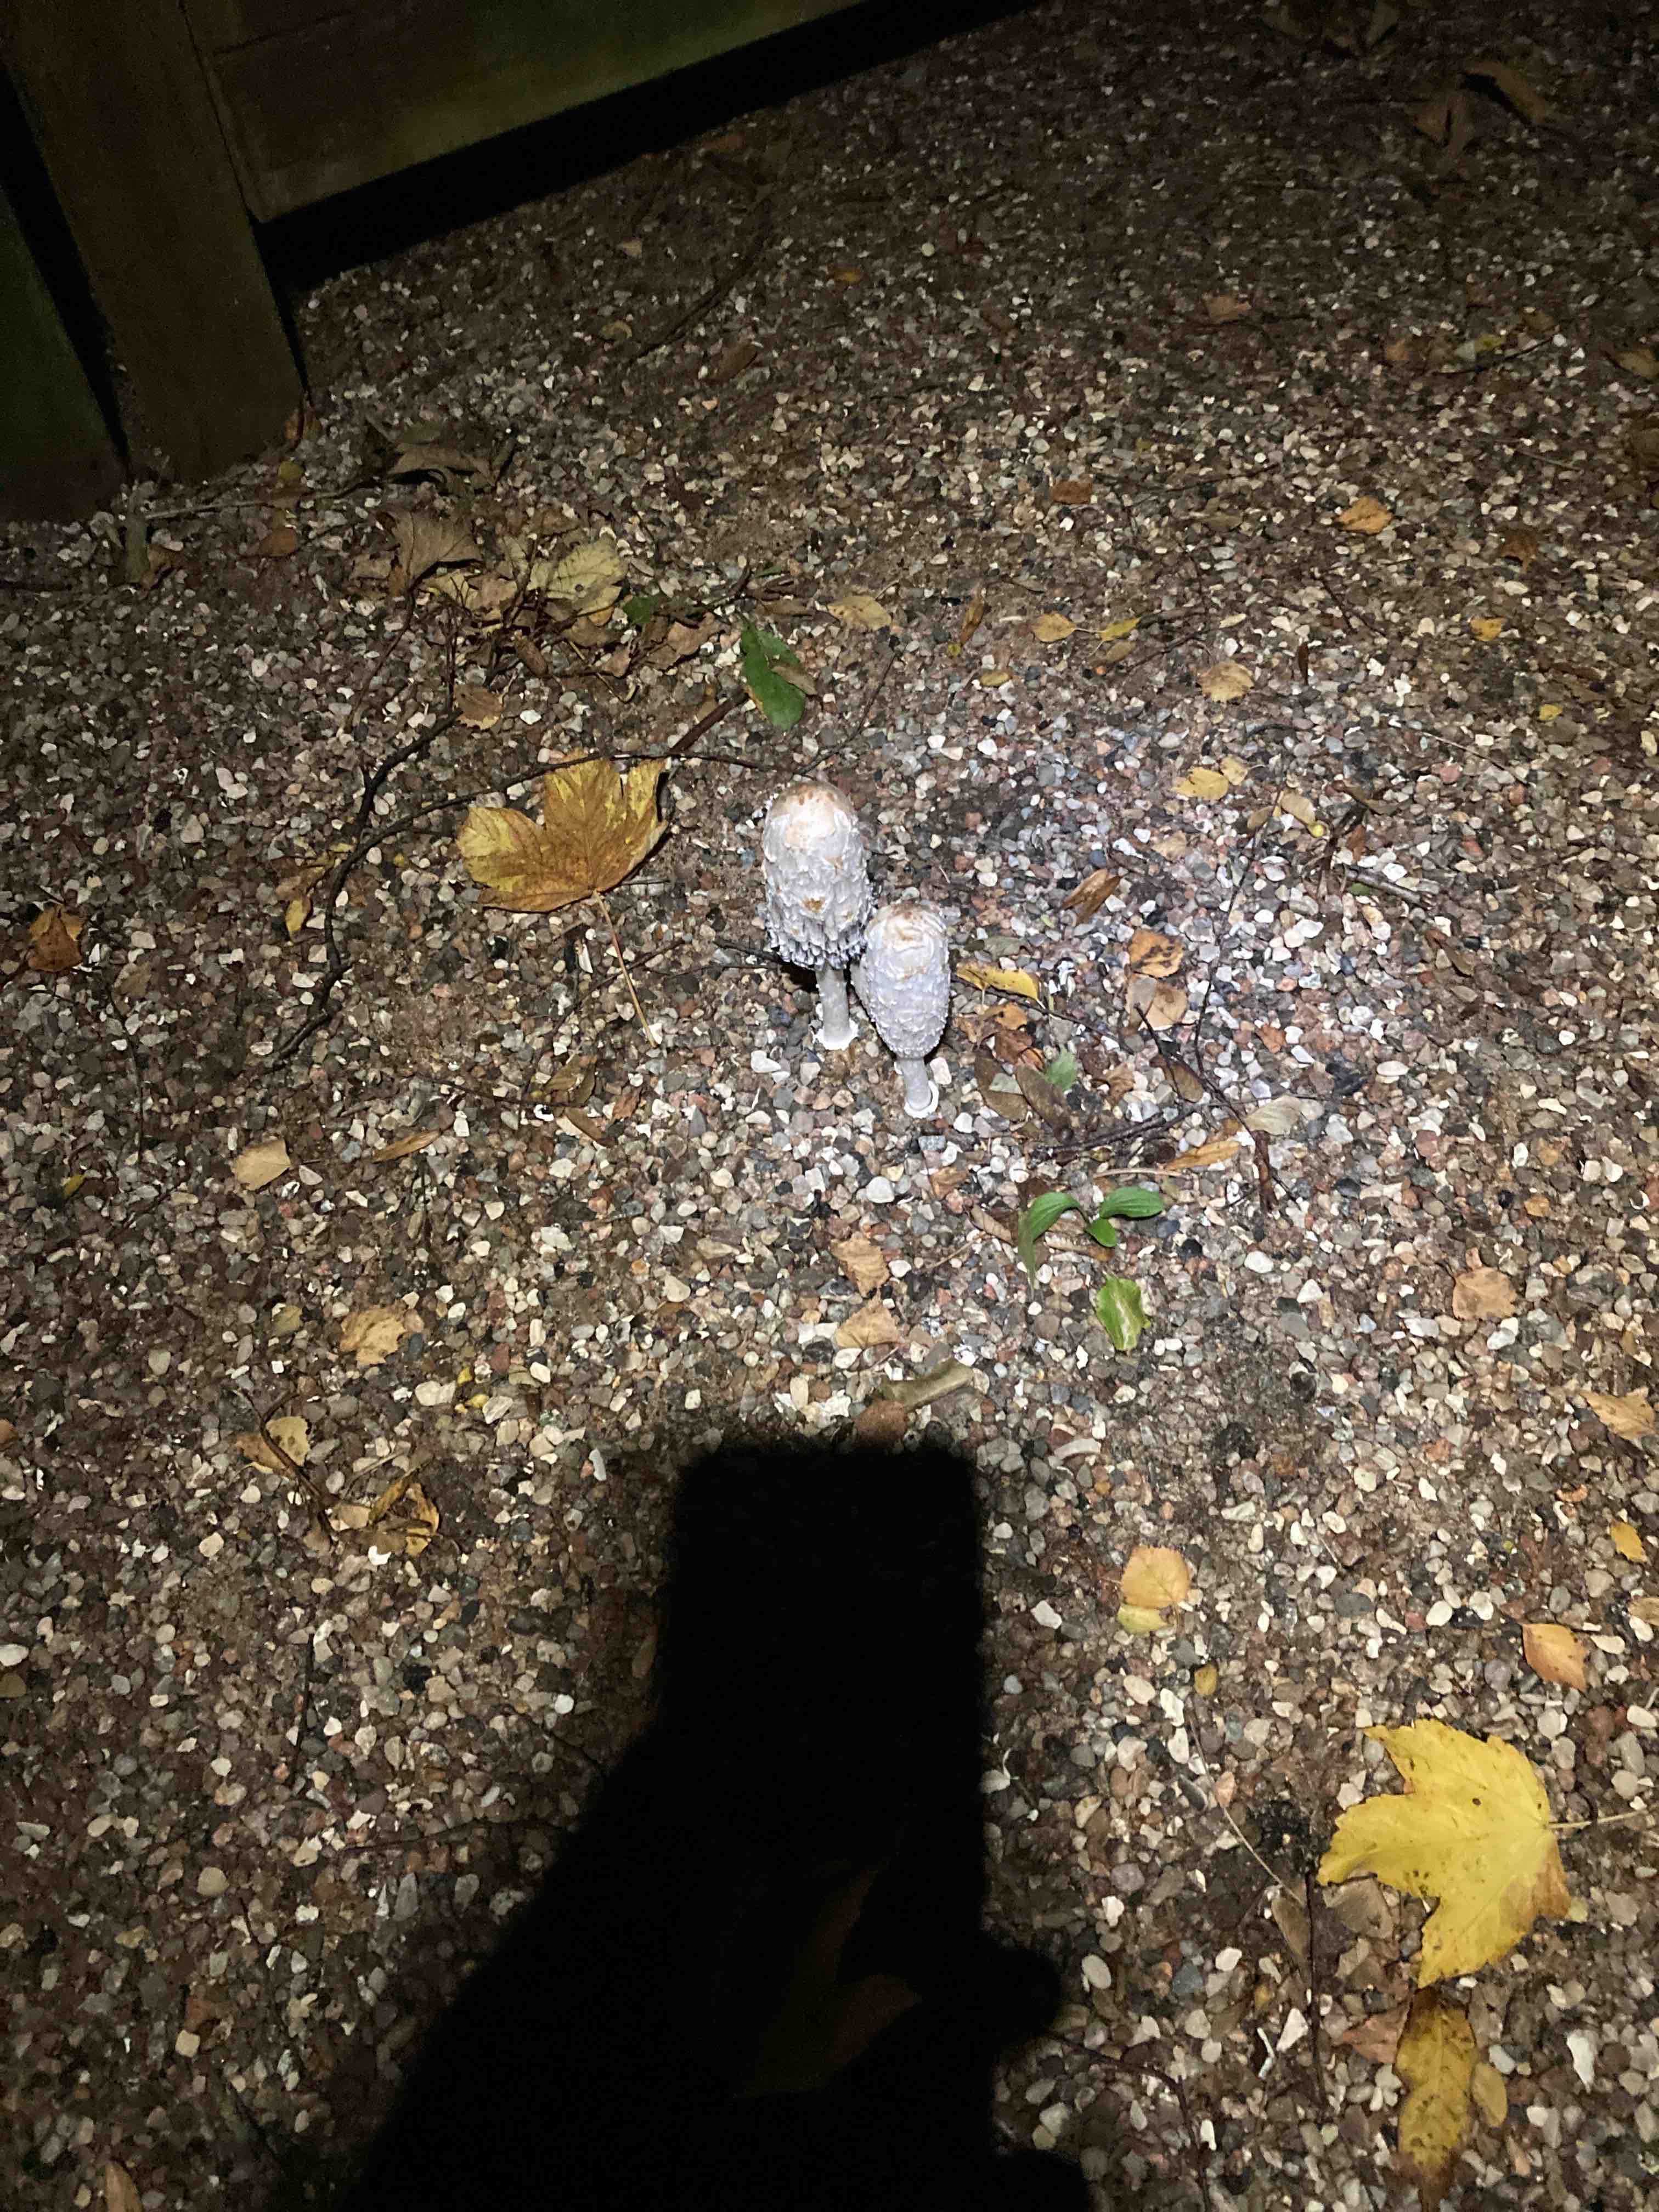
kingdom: Fungi
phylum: Basidiomycota
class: Agaricomycetes
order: Agaricales
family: Agaricaceae
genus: Coprinus
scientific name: Coprinus comatus
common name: stor parykhat
